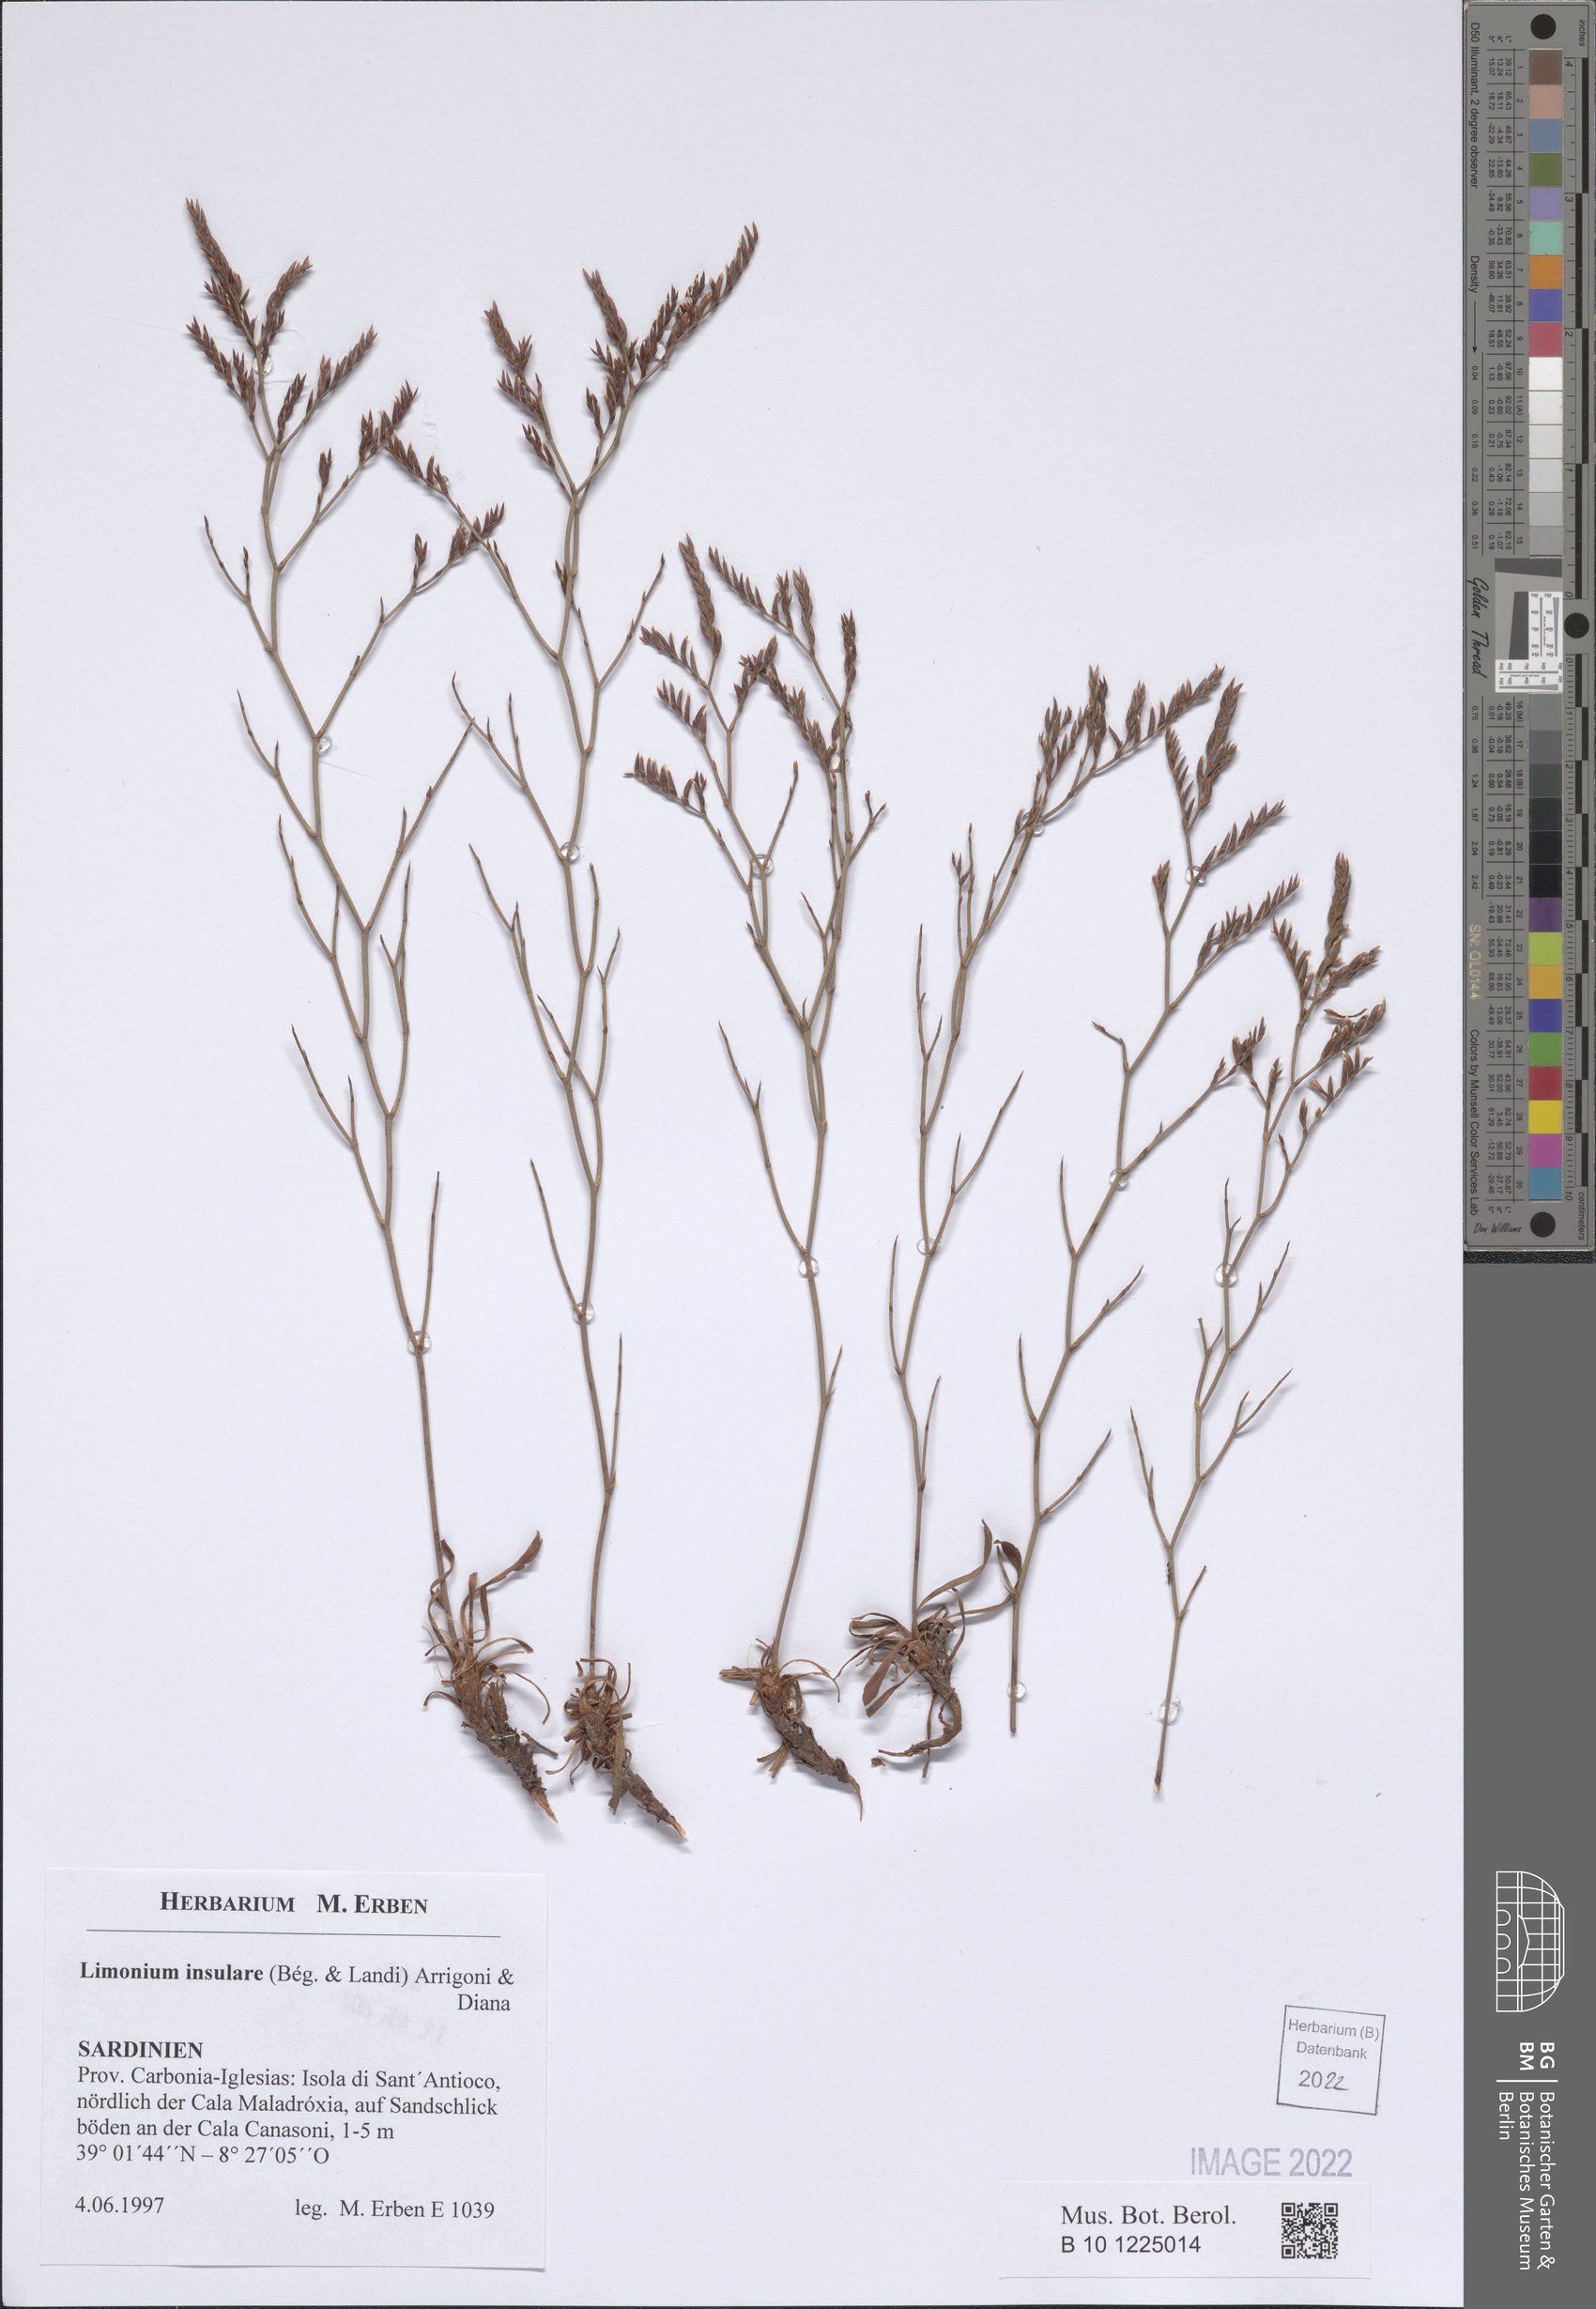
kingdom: Plantae
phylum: Tracheophyta
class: Magnoliopsida
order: Caryophyllales
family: Plumbaginaceae
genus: Limonium
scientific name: Limonium insulare
